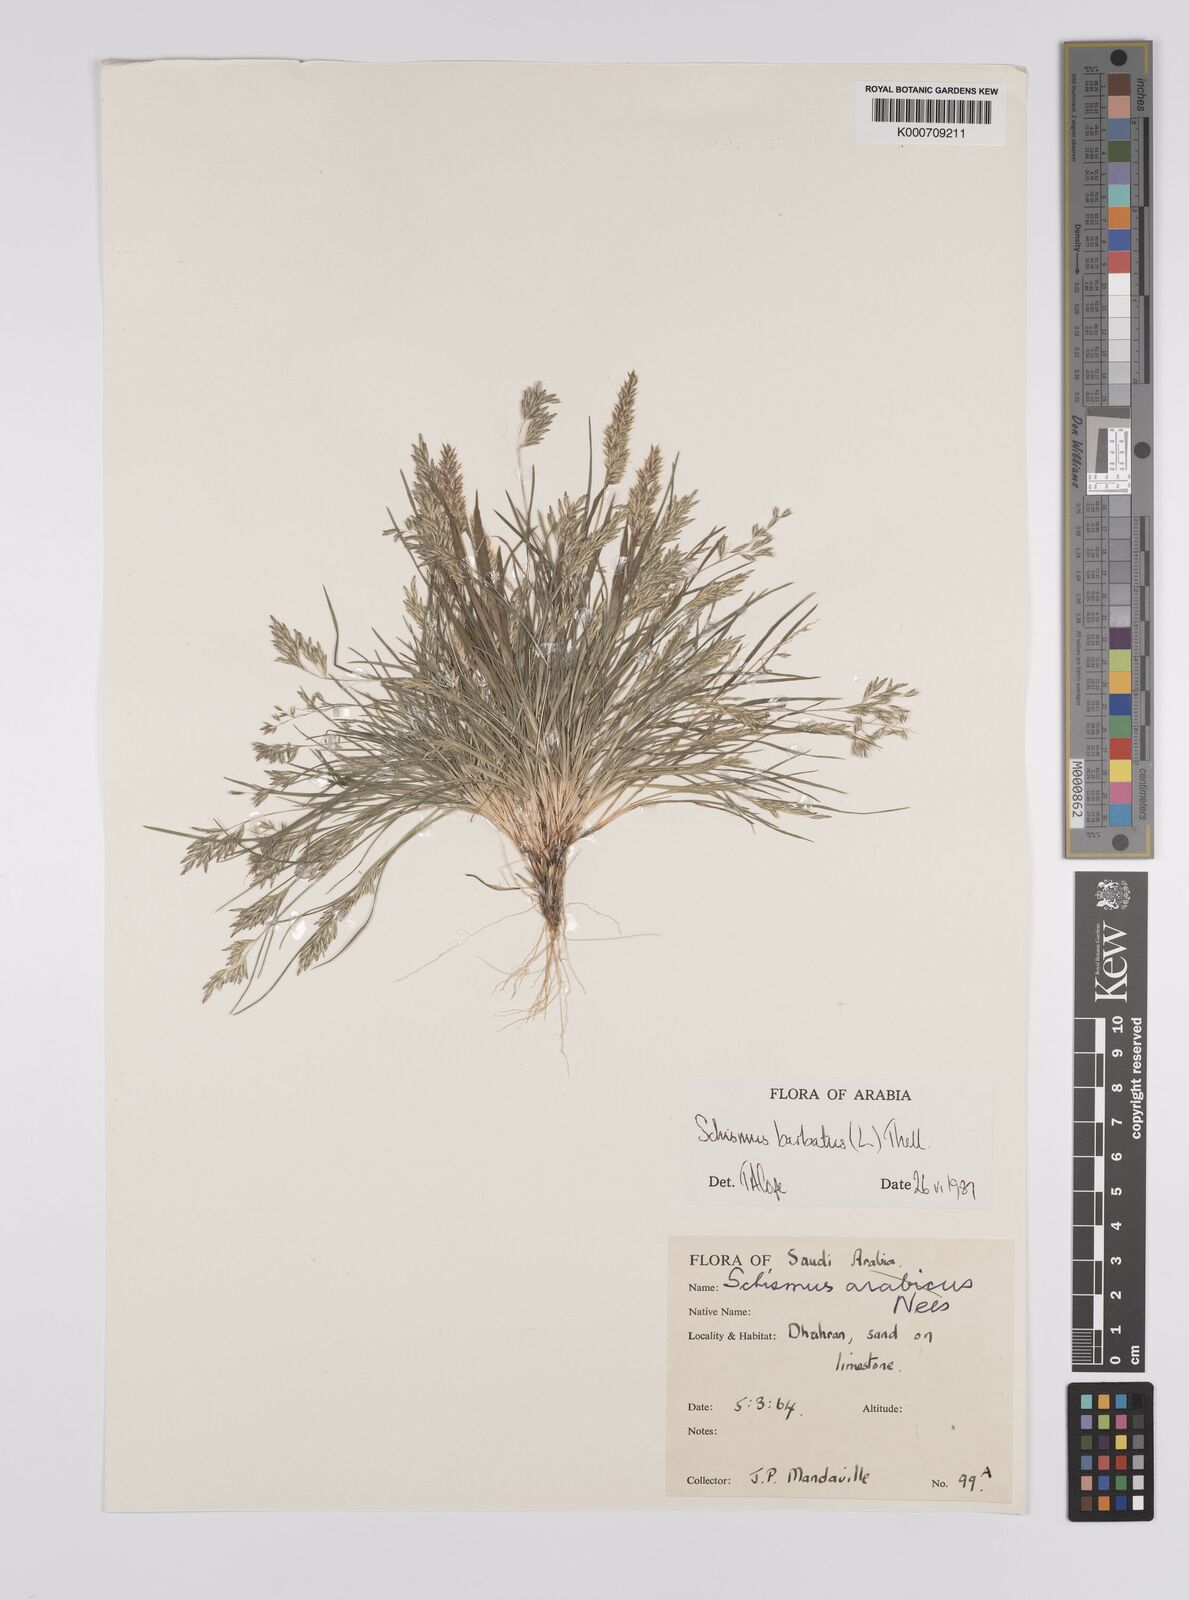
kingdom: Plantae
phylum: Tracheophyta
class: Liliopsida
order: Poales
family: Poaceae
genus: Schismus
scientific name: Schismus barbatus
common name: Kelch-grass
